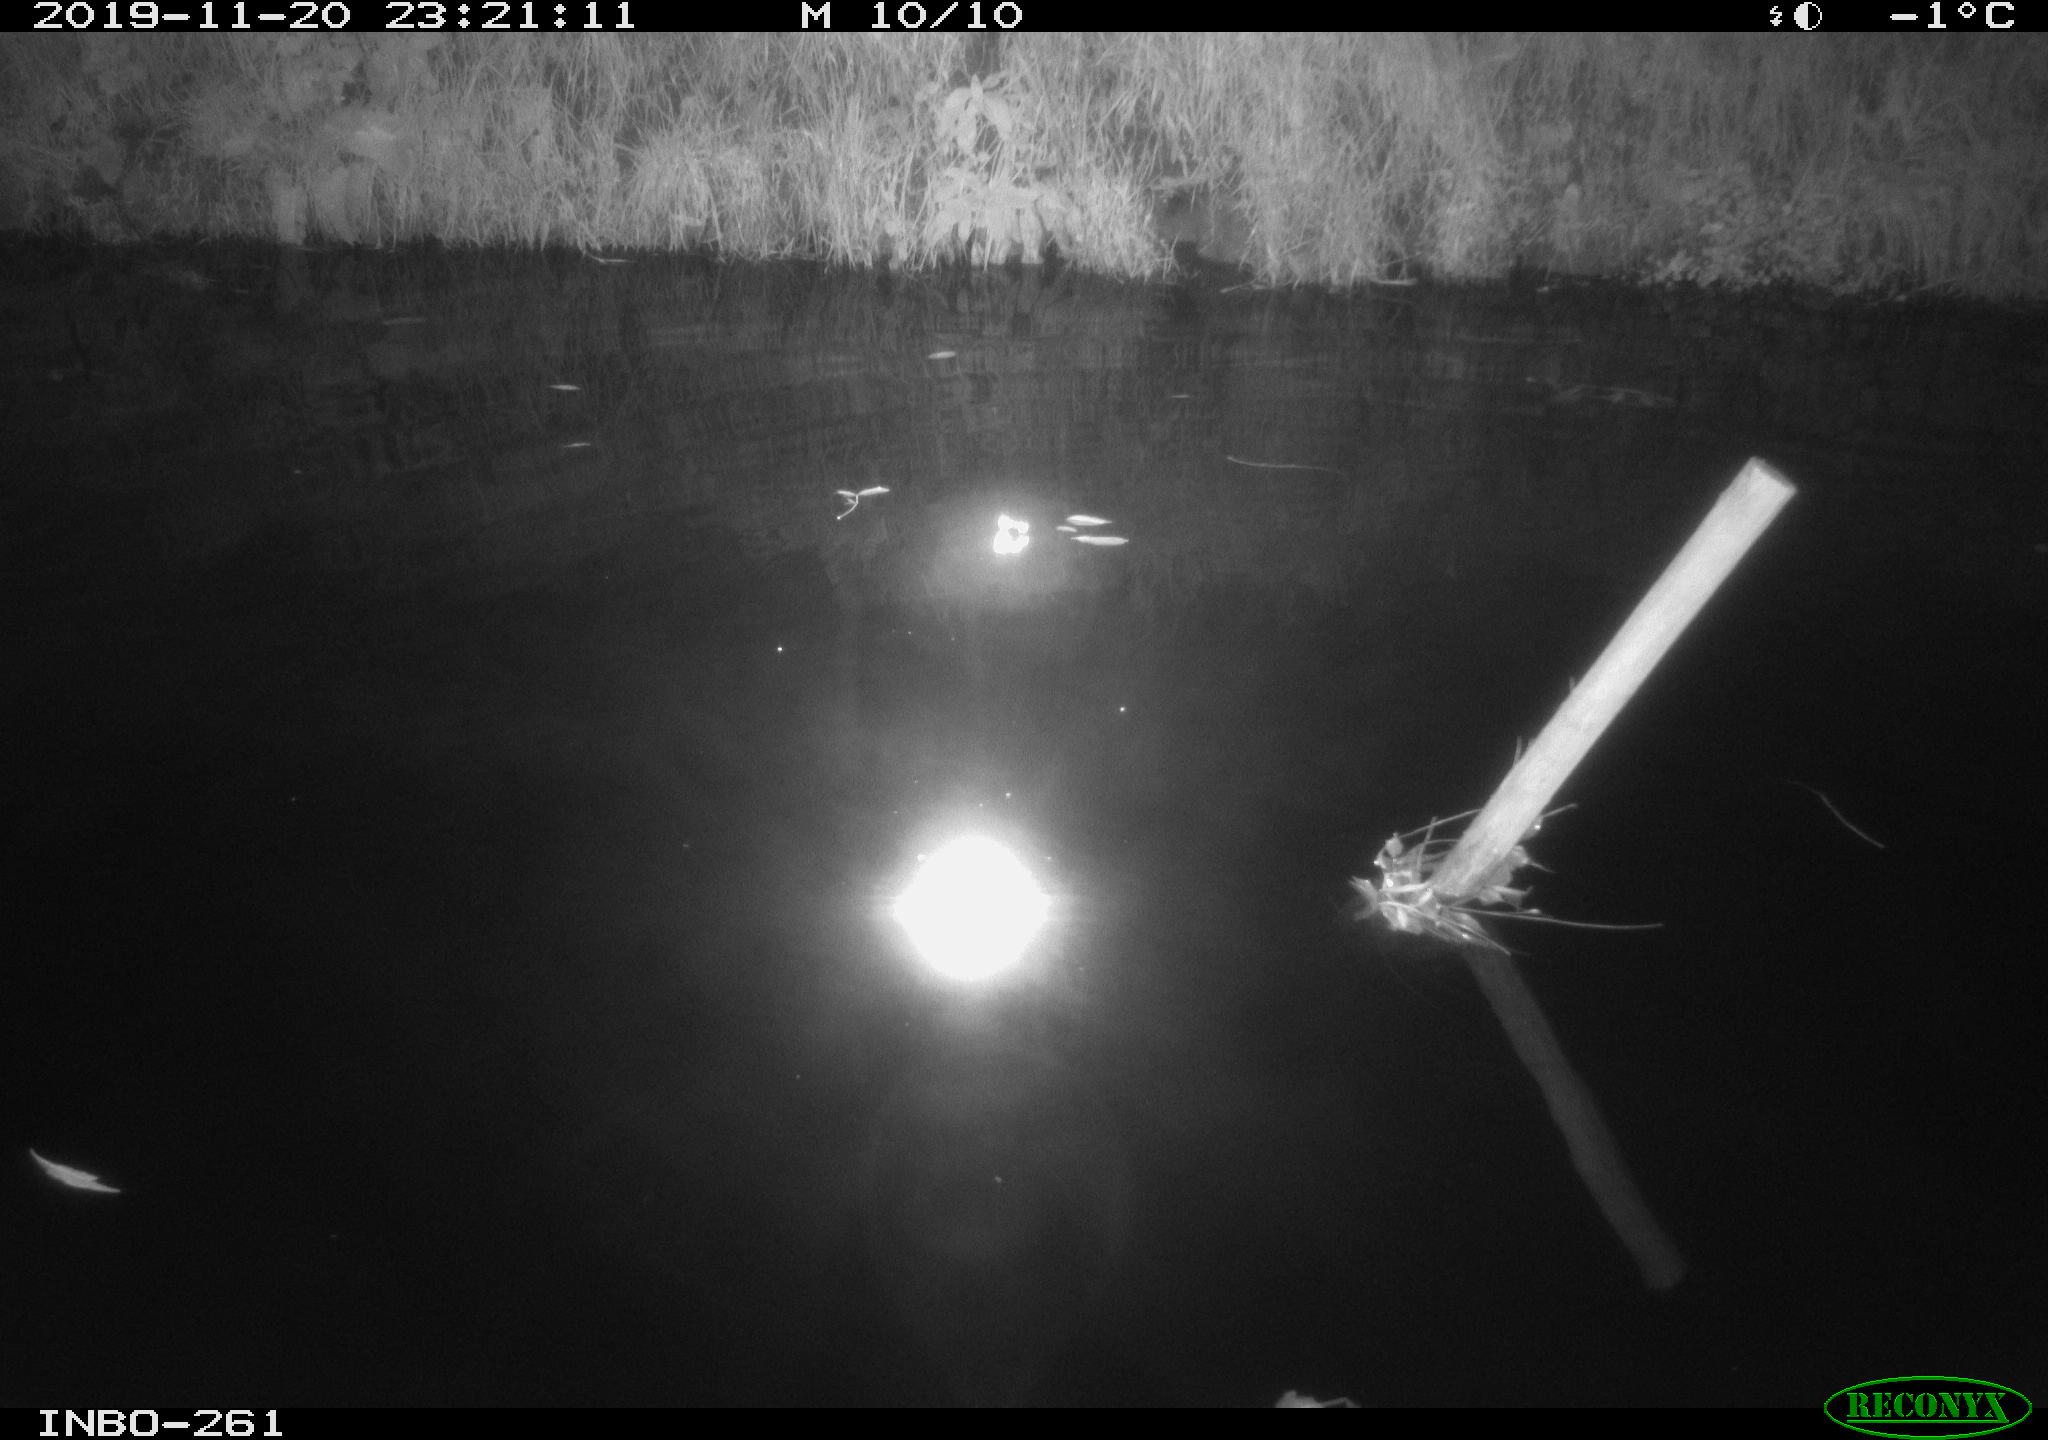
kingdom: Animalia
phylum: Chordata
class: Aves
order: Anseriformes
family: Anatidae
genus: Anas
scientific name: Anas platyrhynchos
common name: Mallard
